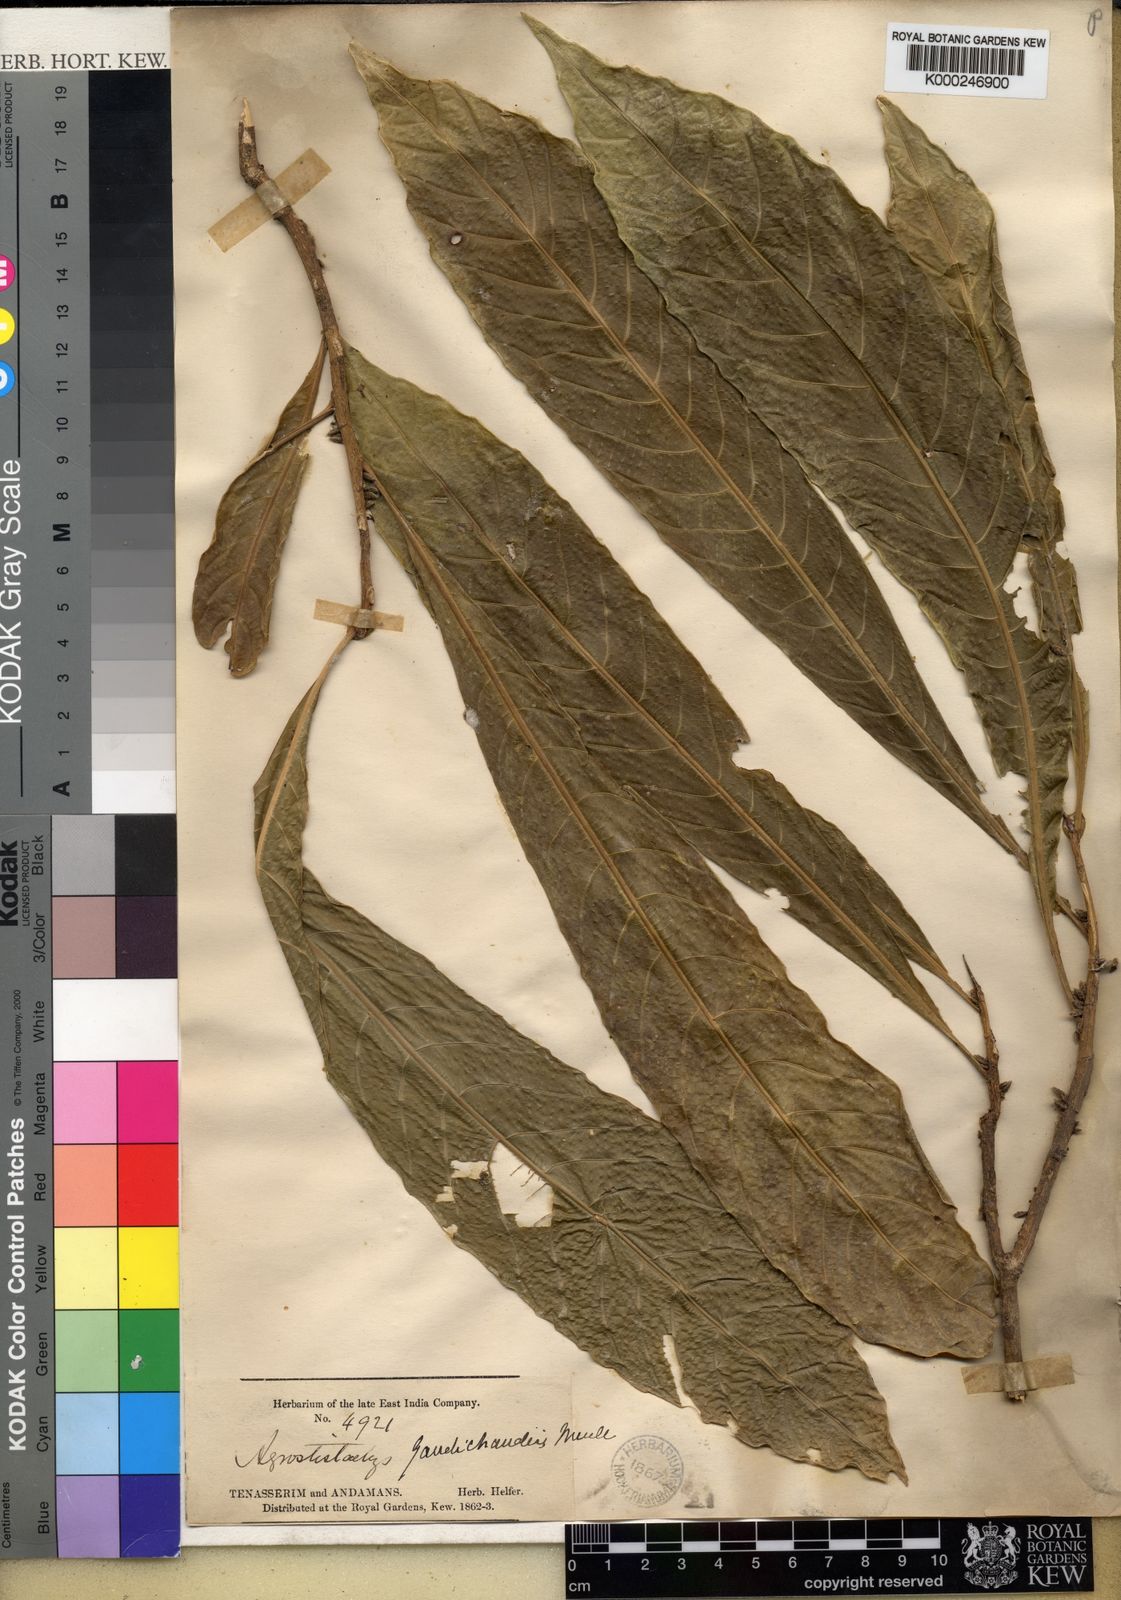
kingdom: Plantae
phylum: Tracheophyta
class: Magnoliopsida
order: Malpighiales
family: Euphorbiaceae
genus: Agrostistachys
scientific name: Agrostistachys indica
